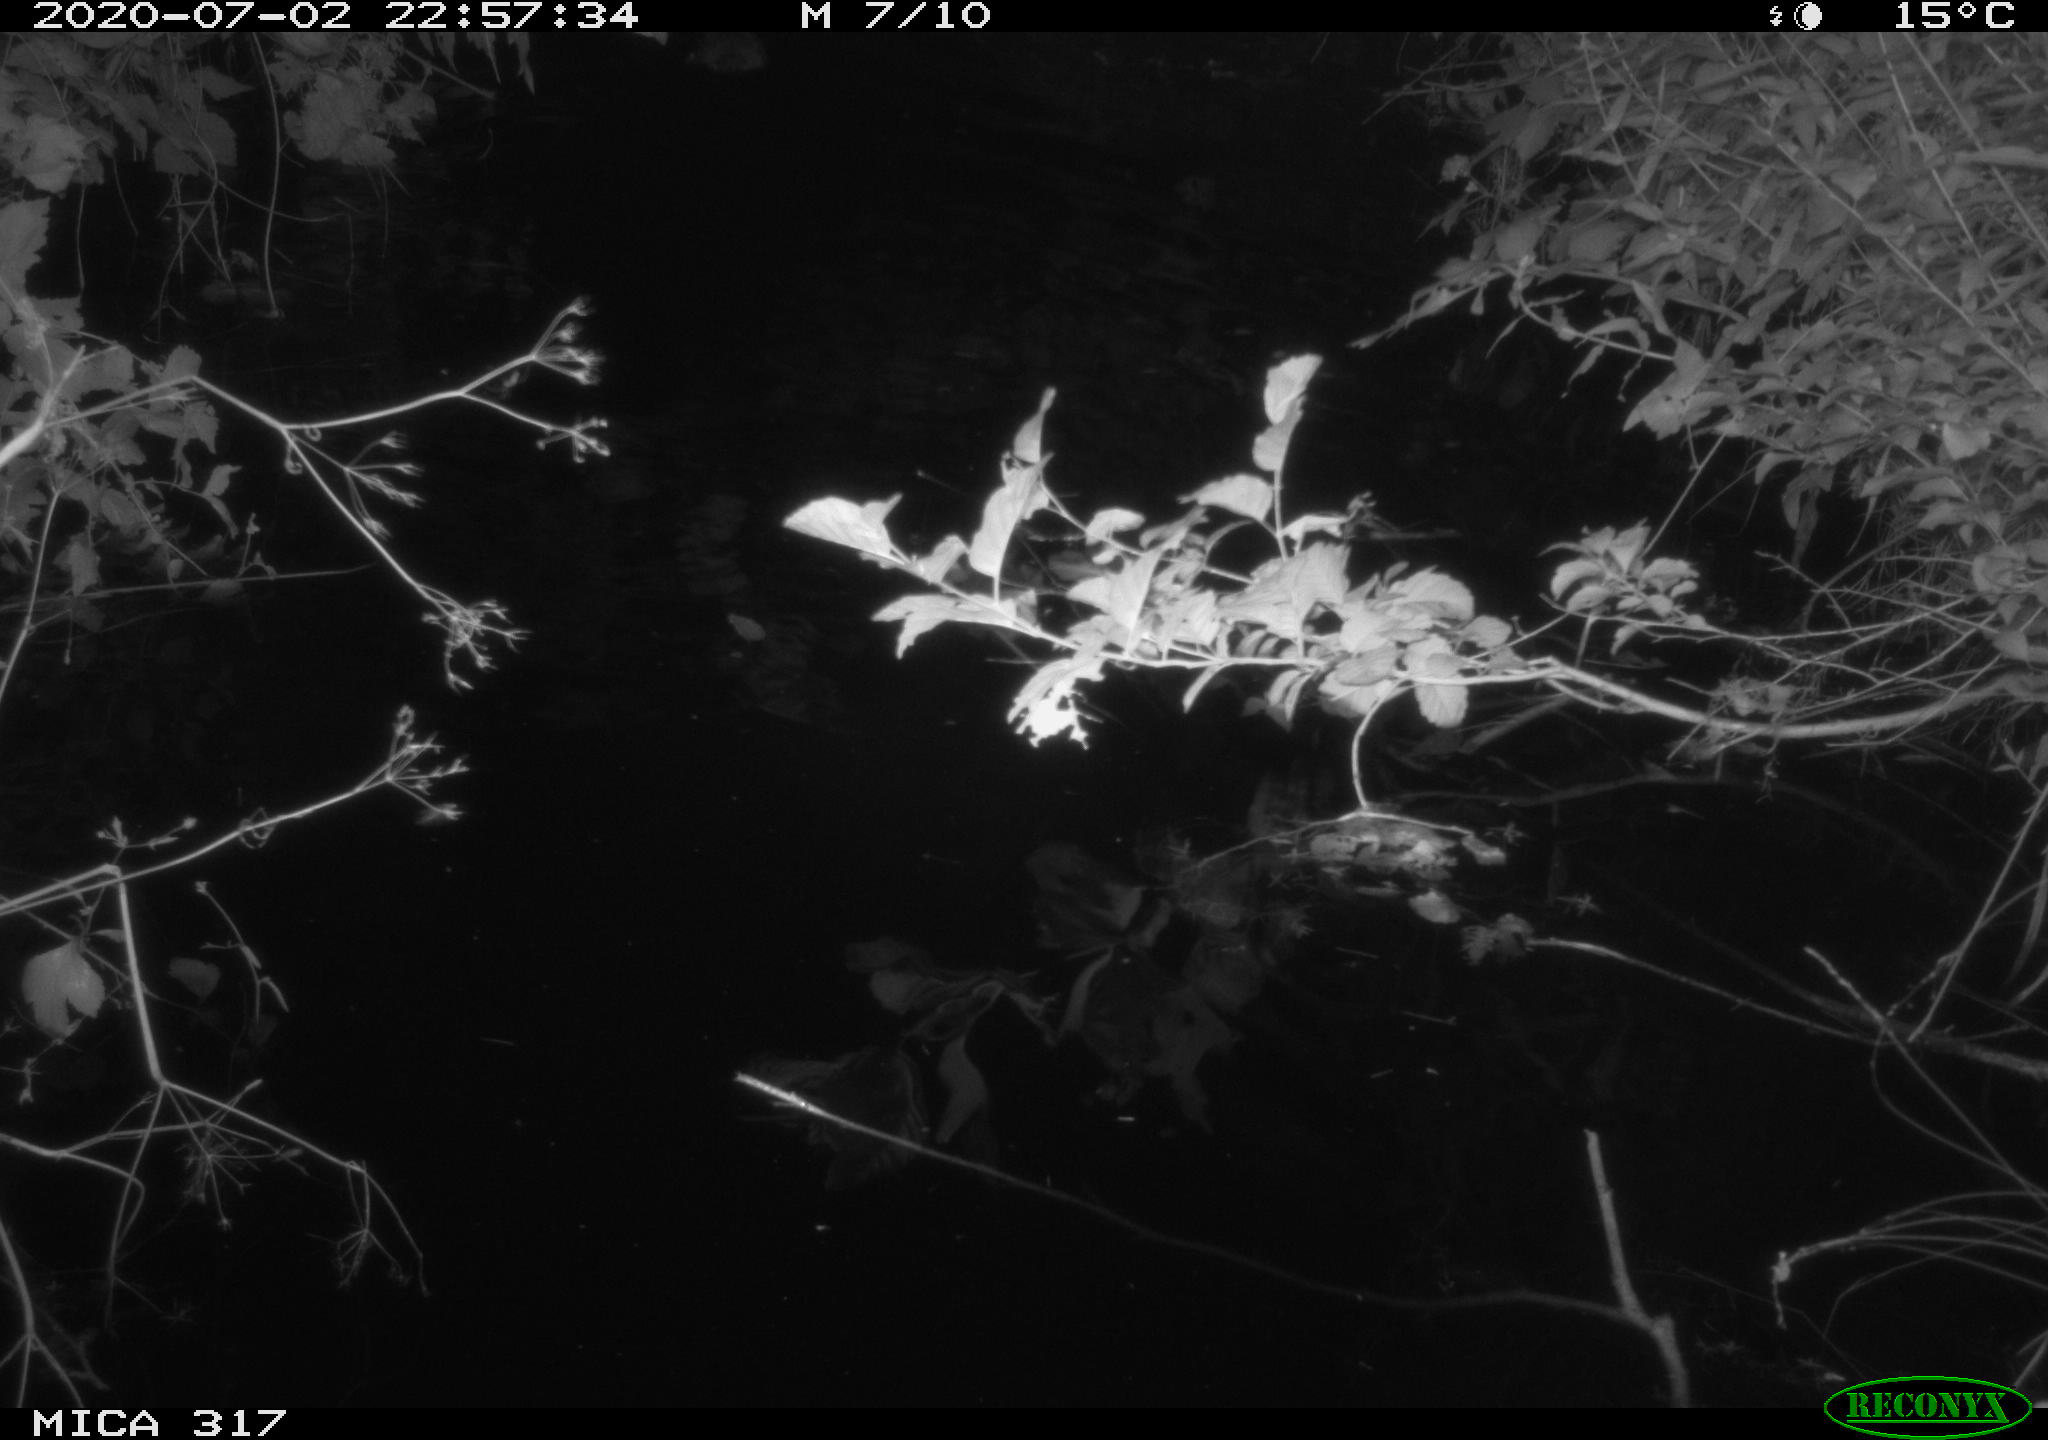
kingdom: Animalia
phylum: Chordata
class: Aves
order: Anseriformes
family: Anatidae
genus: Anas
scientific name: Anas platyrhynchos
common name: Mallard
